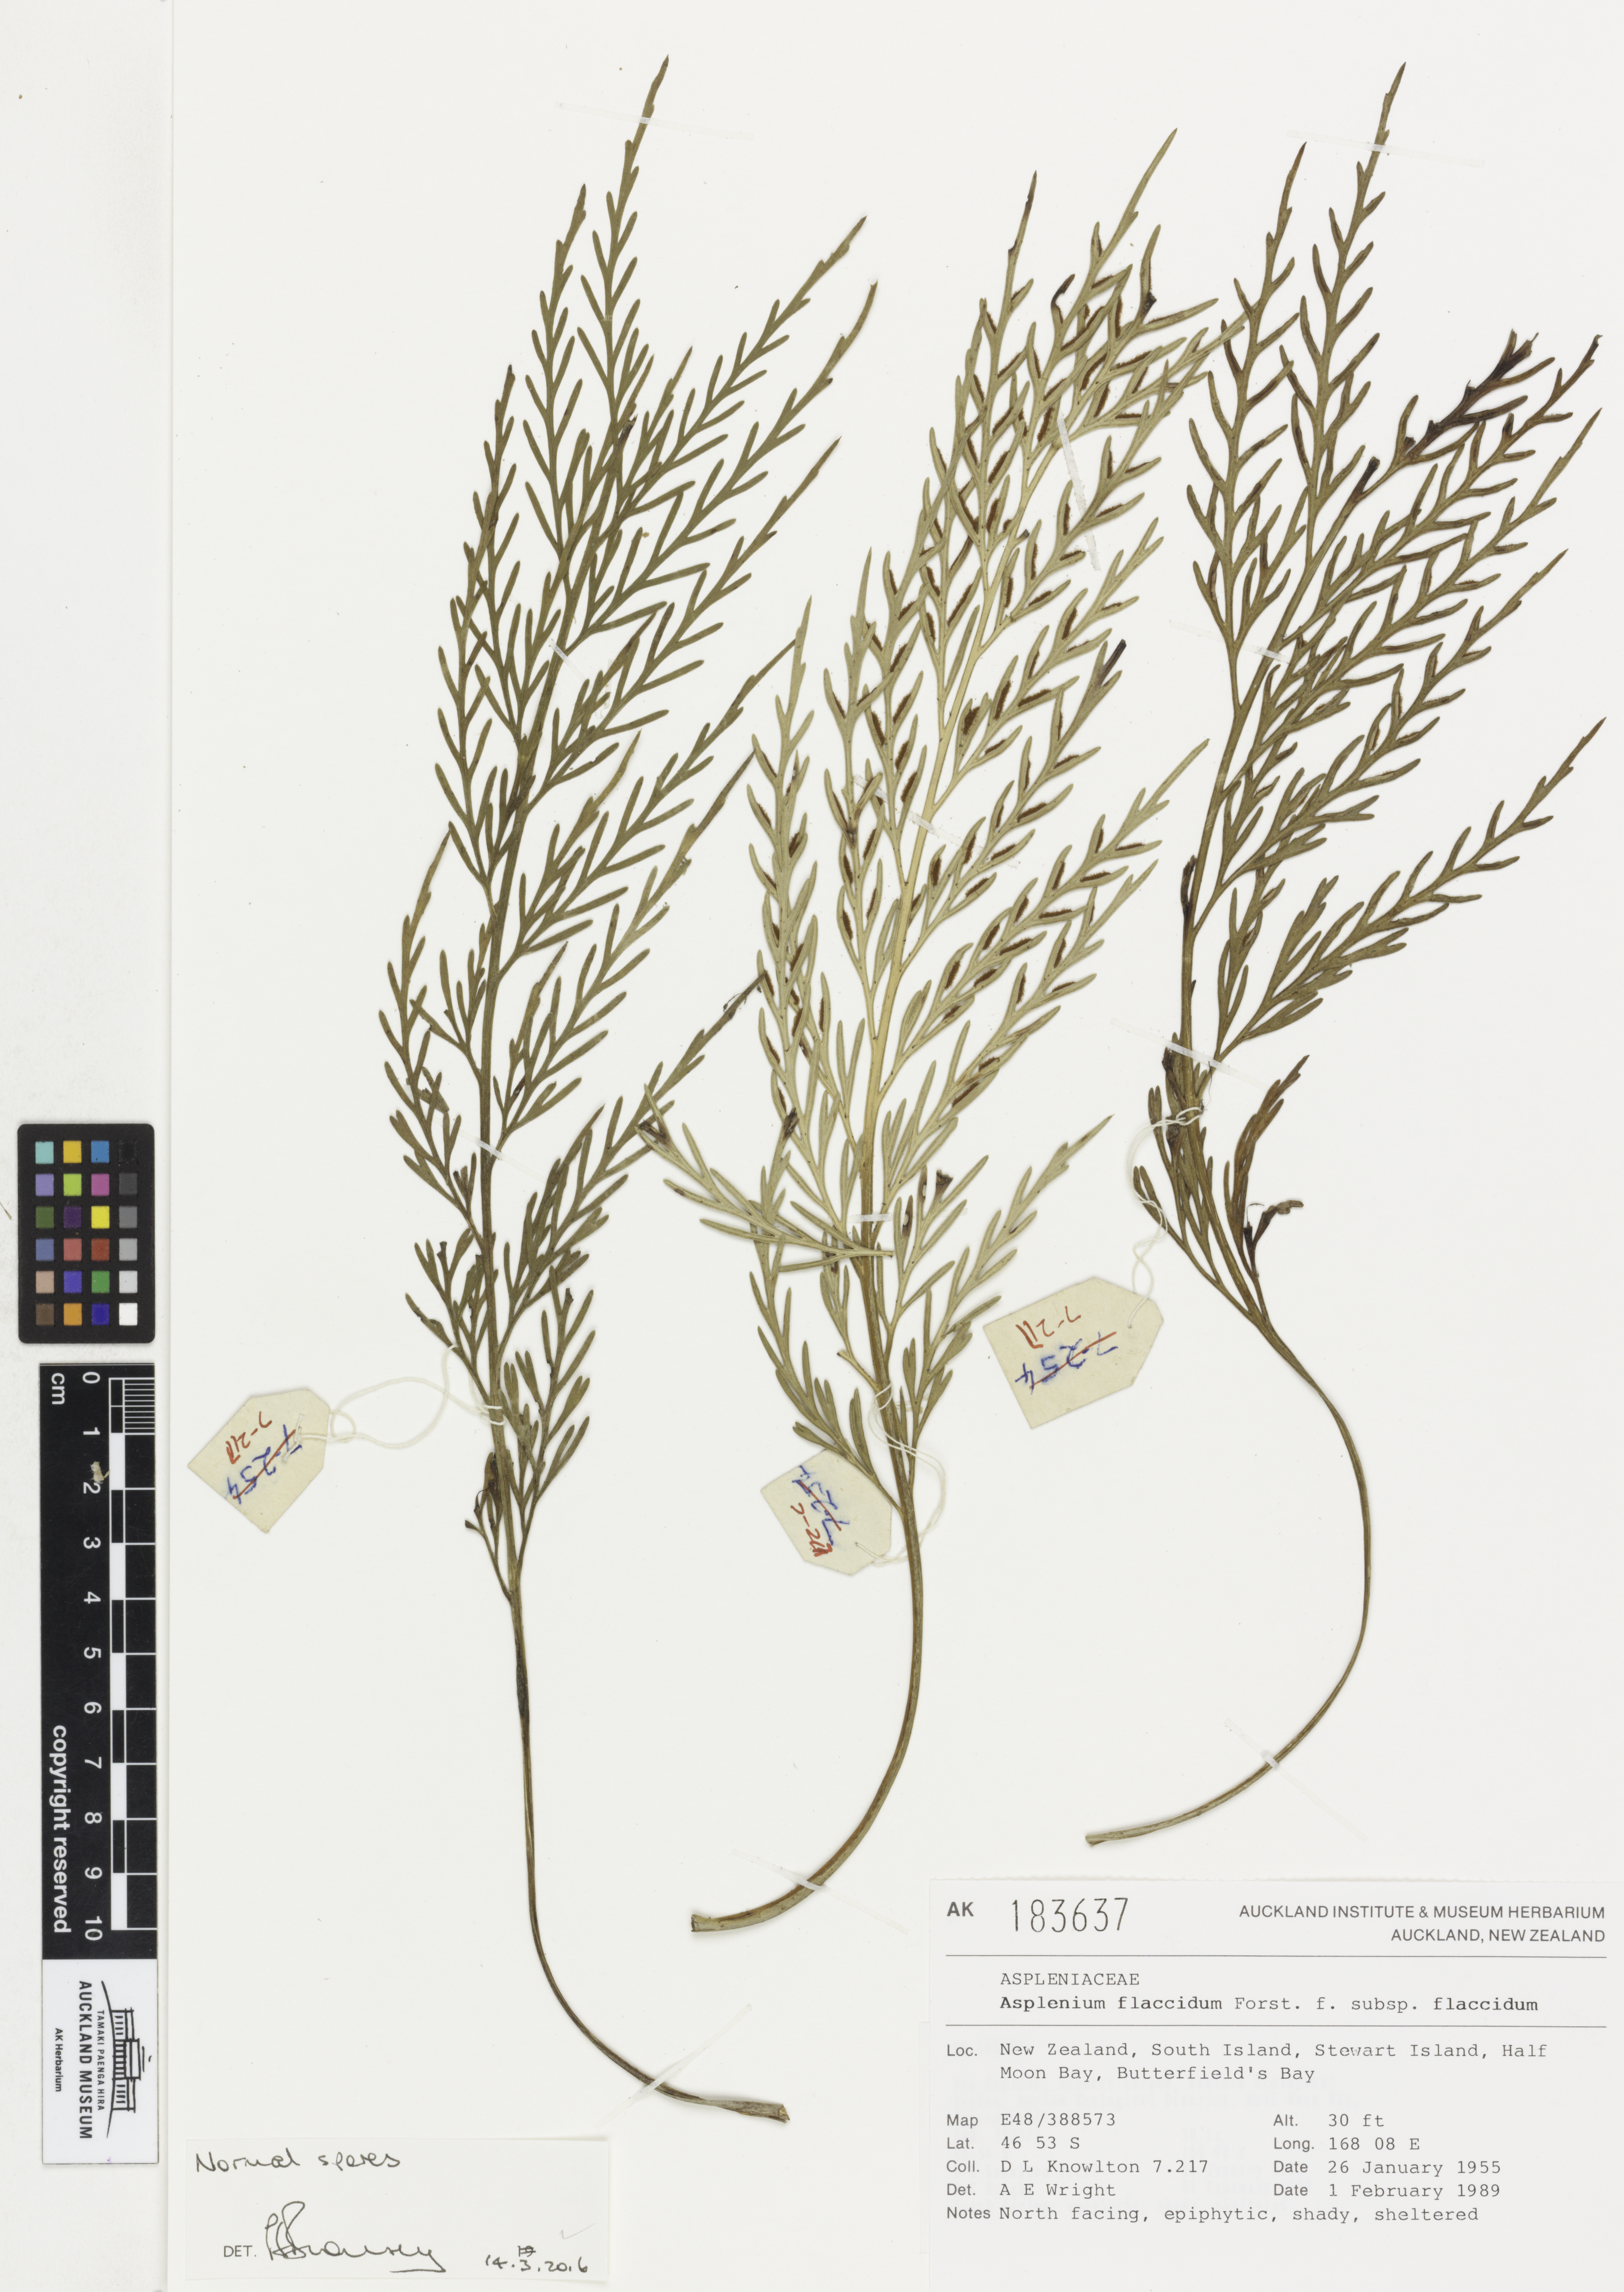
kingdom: Plantae
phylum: Tracheophyta
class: Polypodiopsida
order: Polypodiales
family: Aspleniaceae
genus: Asplenium
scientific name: Asplenium flaccidum
